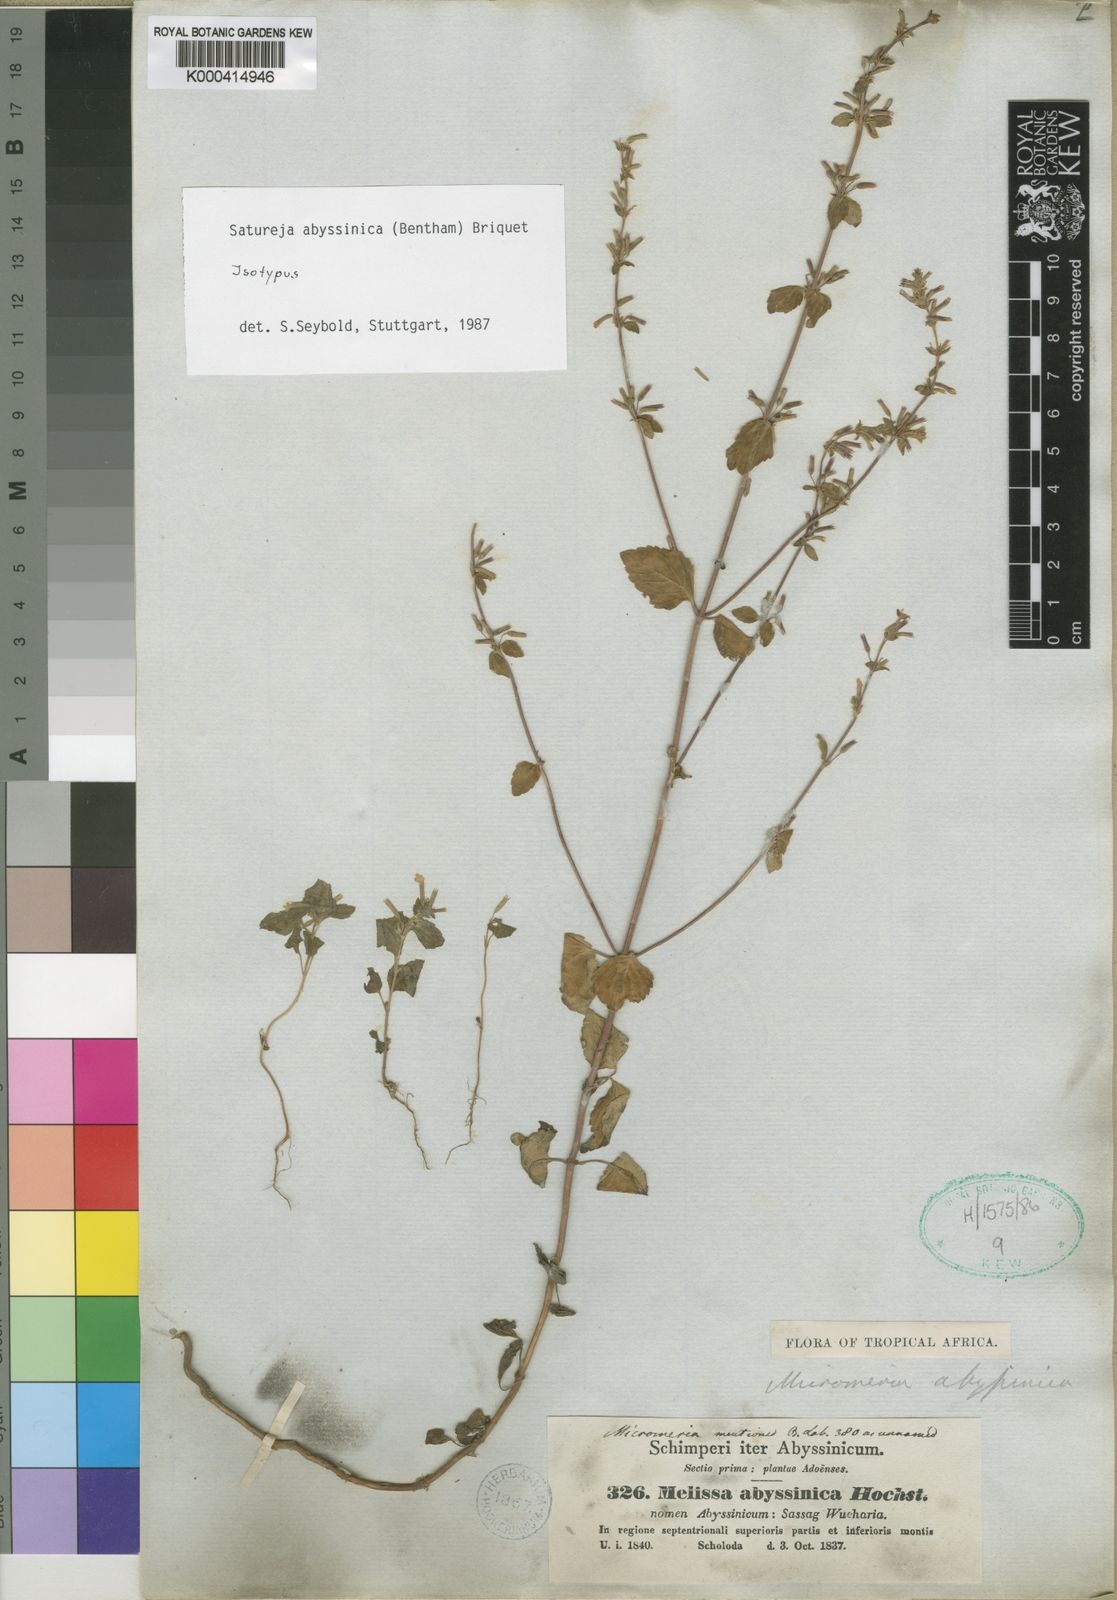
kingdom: Plantae
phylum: Tracheophyta
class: Magnoliopsida
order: Lamiales
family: Lamiaceae
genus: Clinopodium
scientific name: Clinopodium abyssinicum
